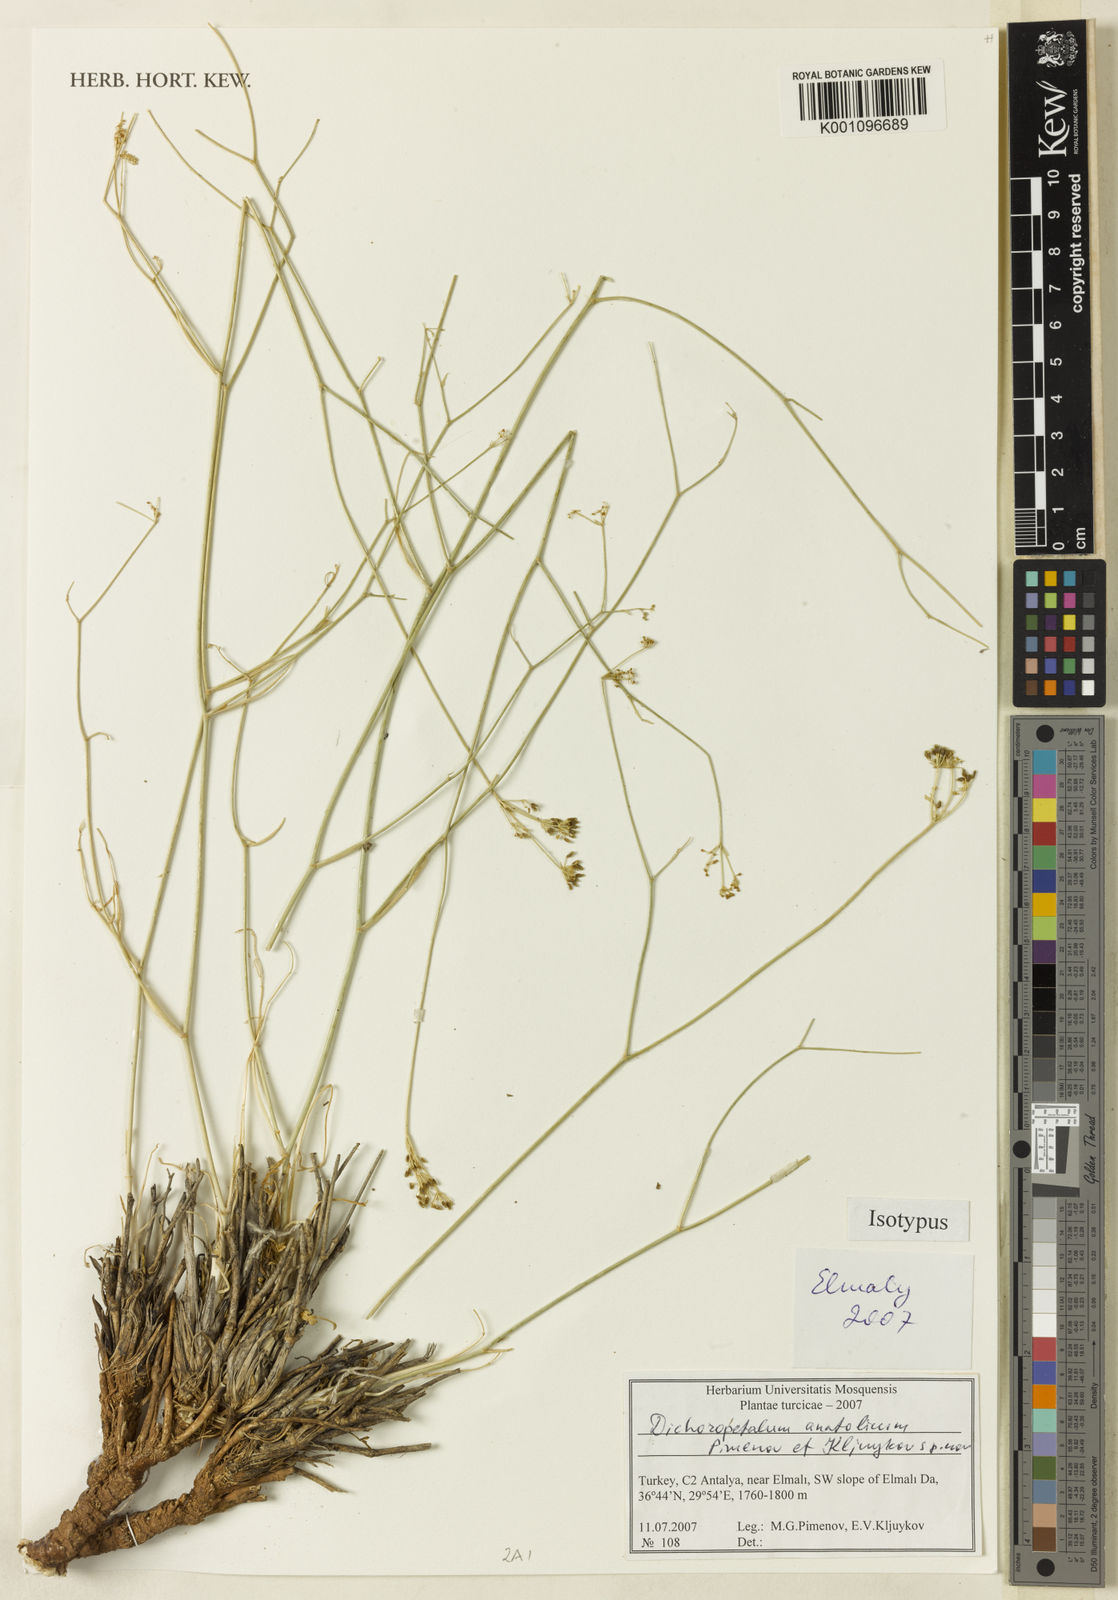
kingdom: Plantae
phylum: Tracheophyta
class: Magnoliopsida
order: Apiales
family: Apiaceae
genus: Johrenia
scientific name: Johrenia anatolica
